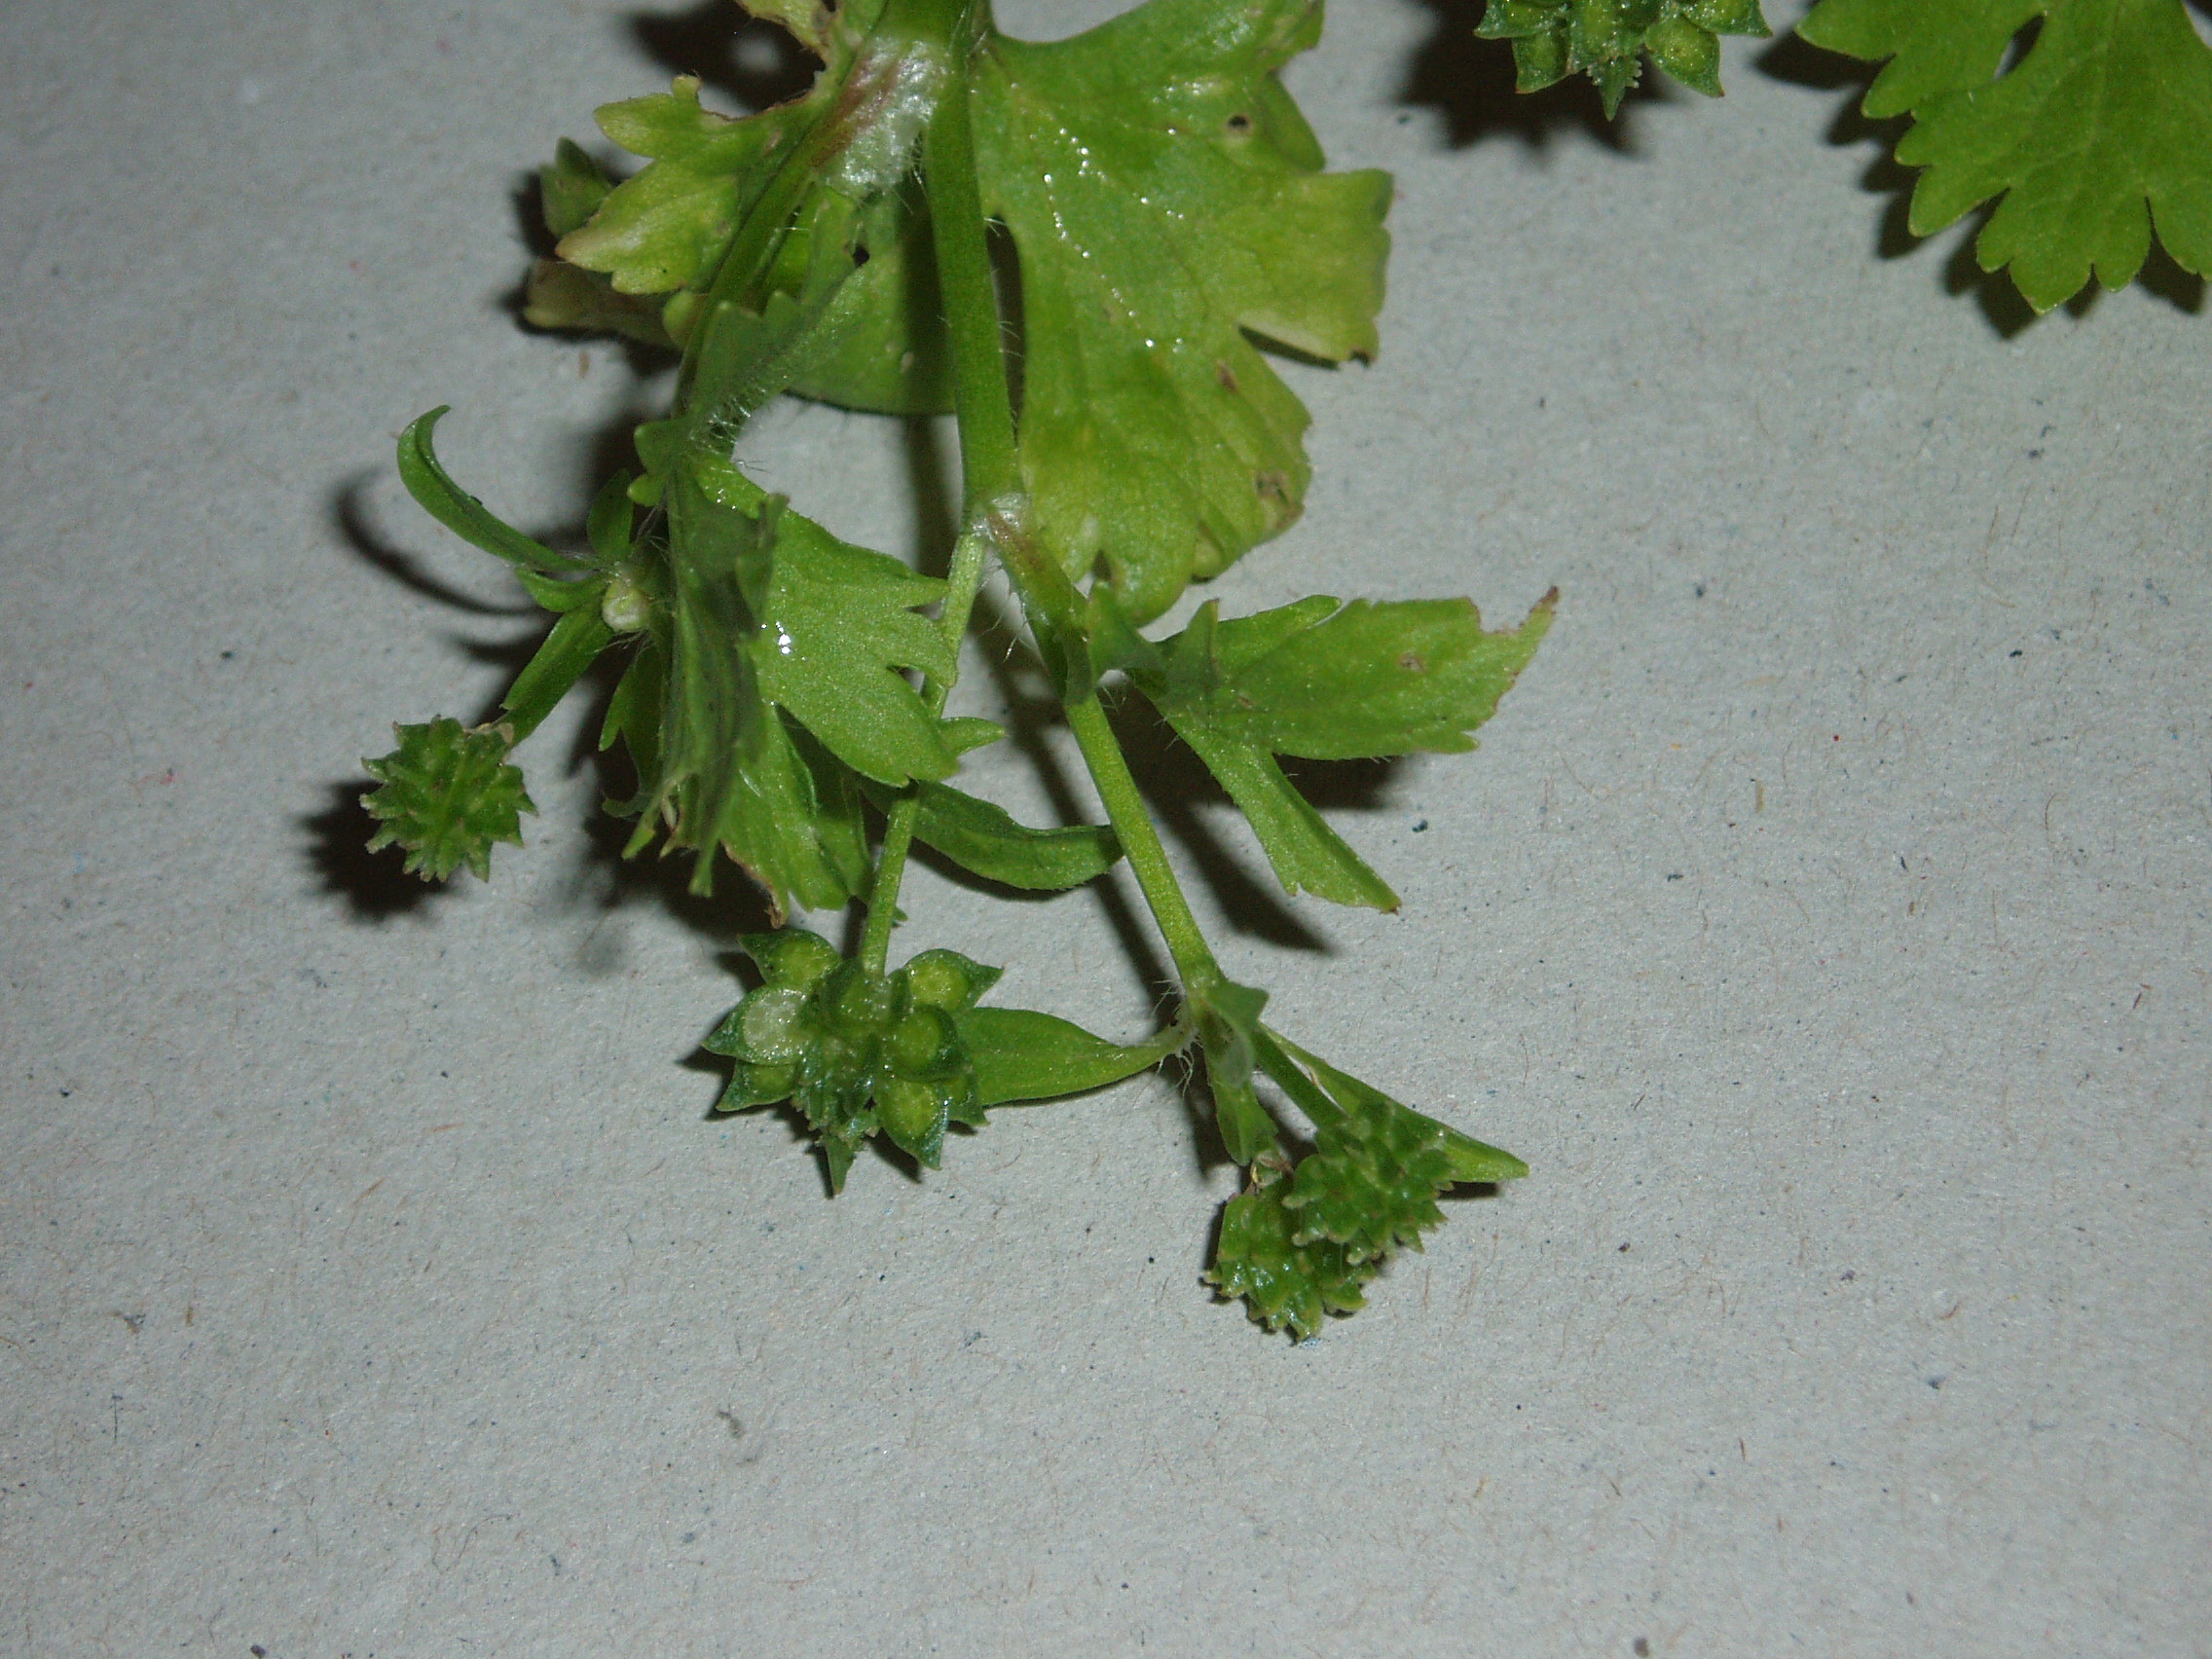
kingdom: Plantae
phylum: Tracheophyta
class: Magnoliopsida
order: Ranunculales
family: Ranunculaceae
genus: Ranunculus
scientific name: Ranunculus muricatus
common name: Rough-fruited buttercup
